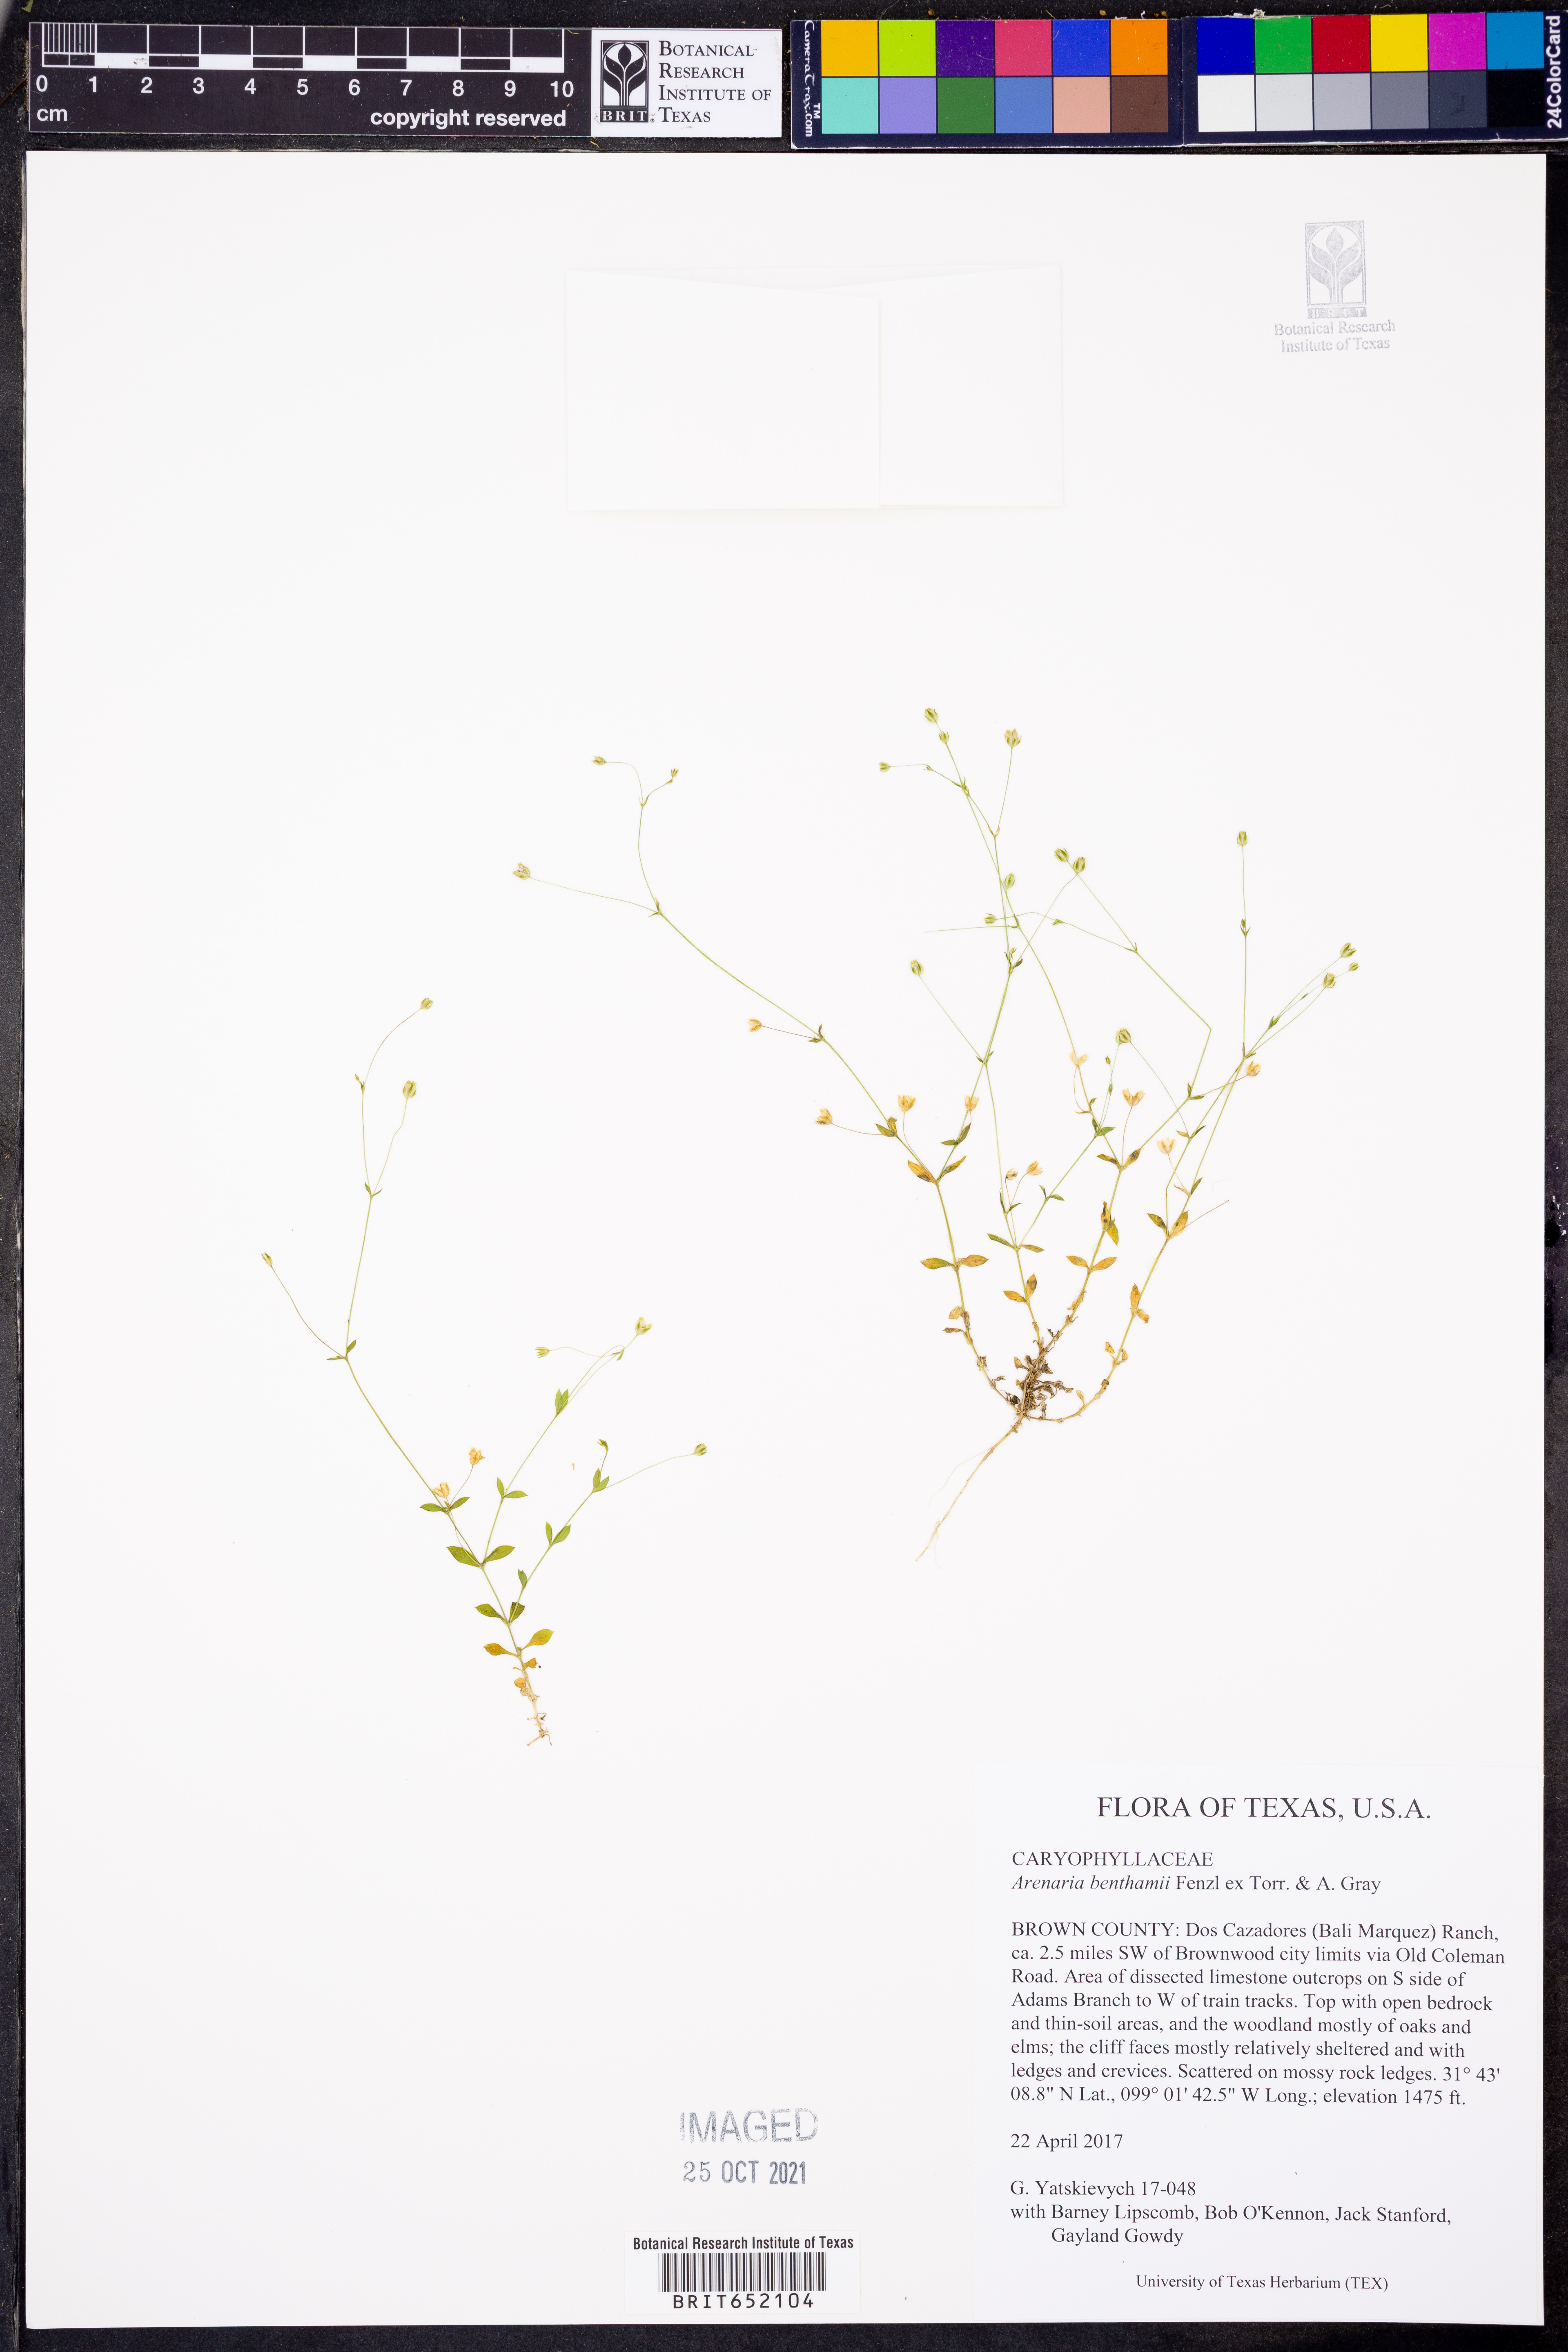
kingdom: Plantae
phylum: Tracheophyta
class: Magnoliopsida
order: Caryophyllales
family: Caryophyllaceae
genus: Arenaria
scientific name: Arenaria benthamii
